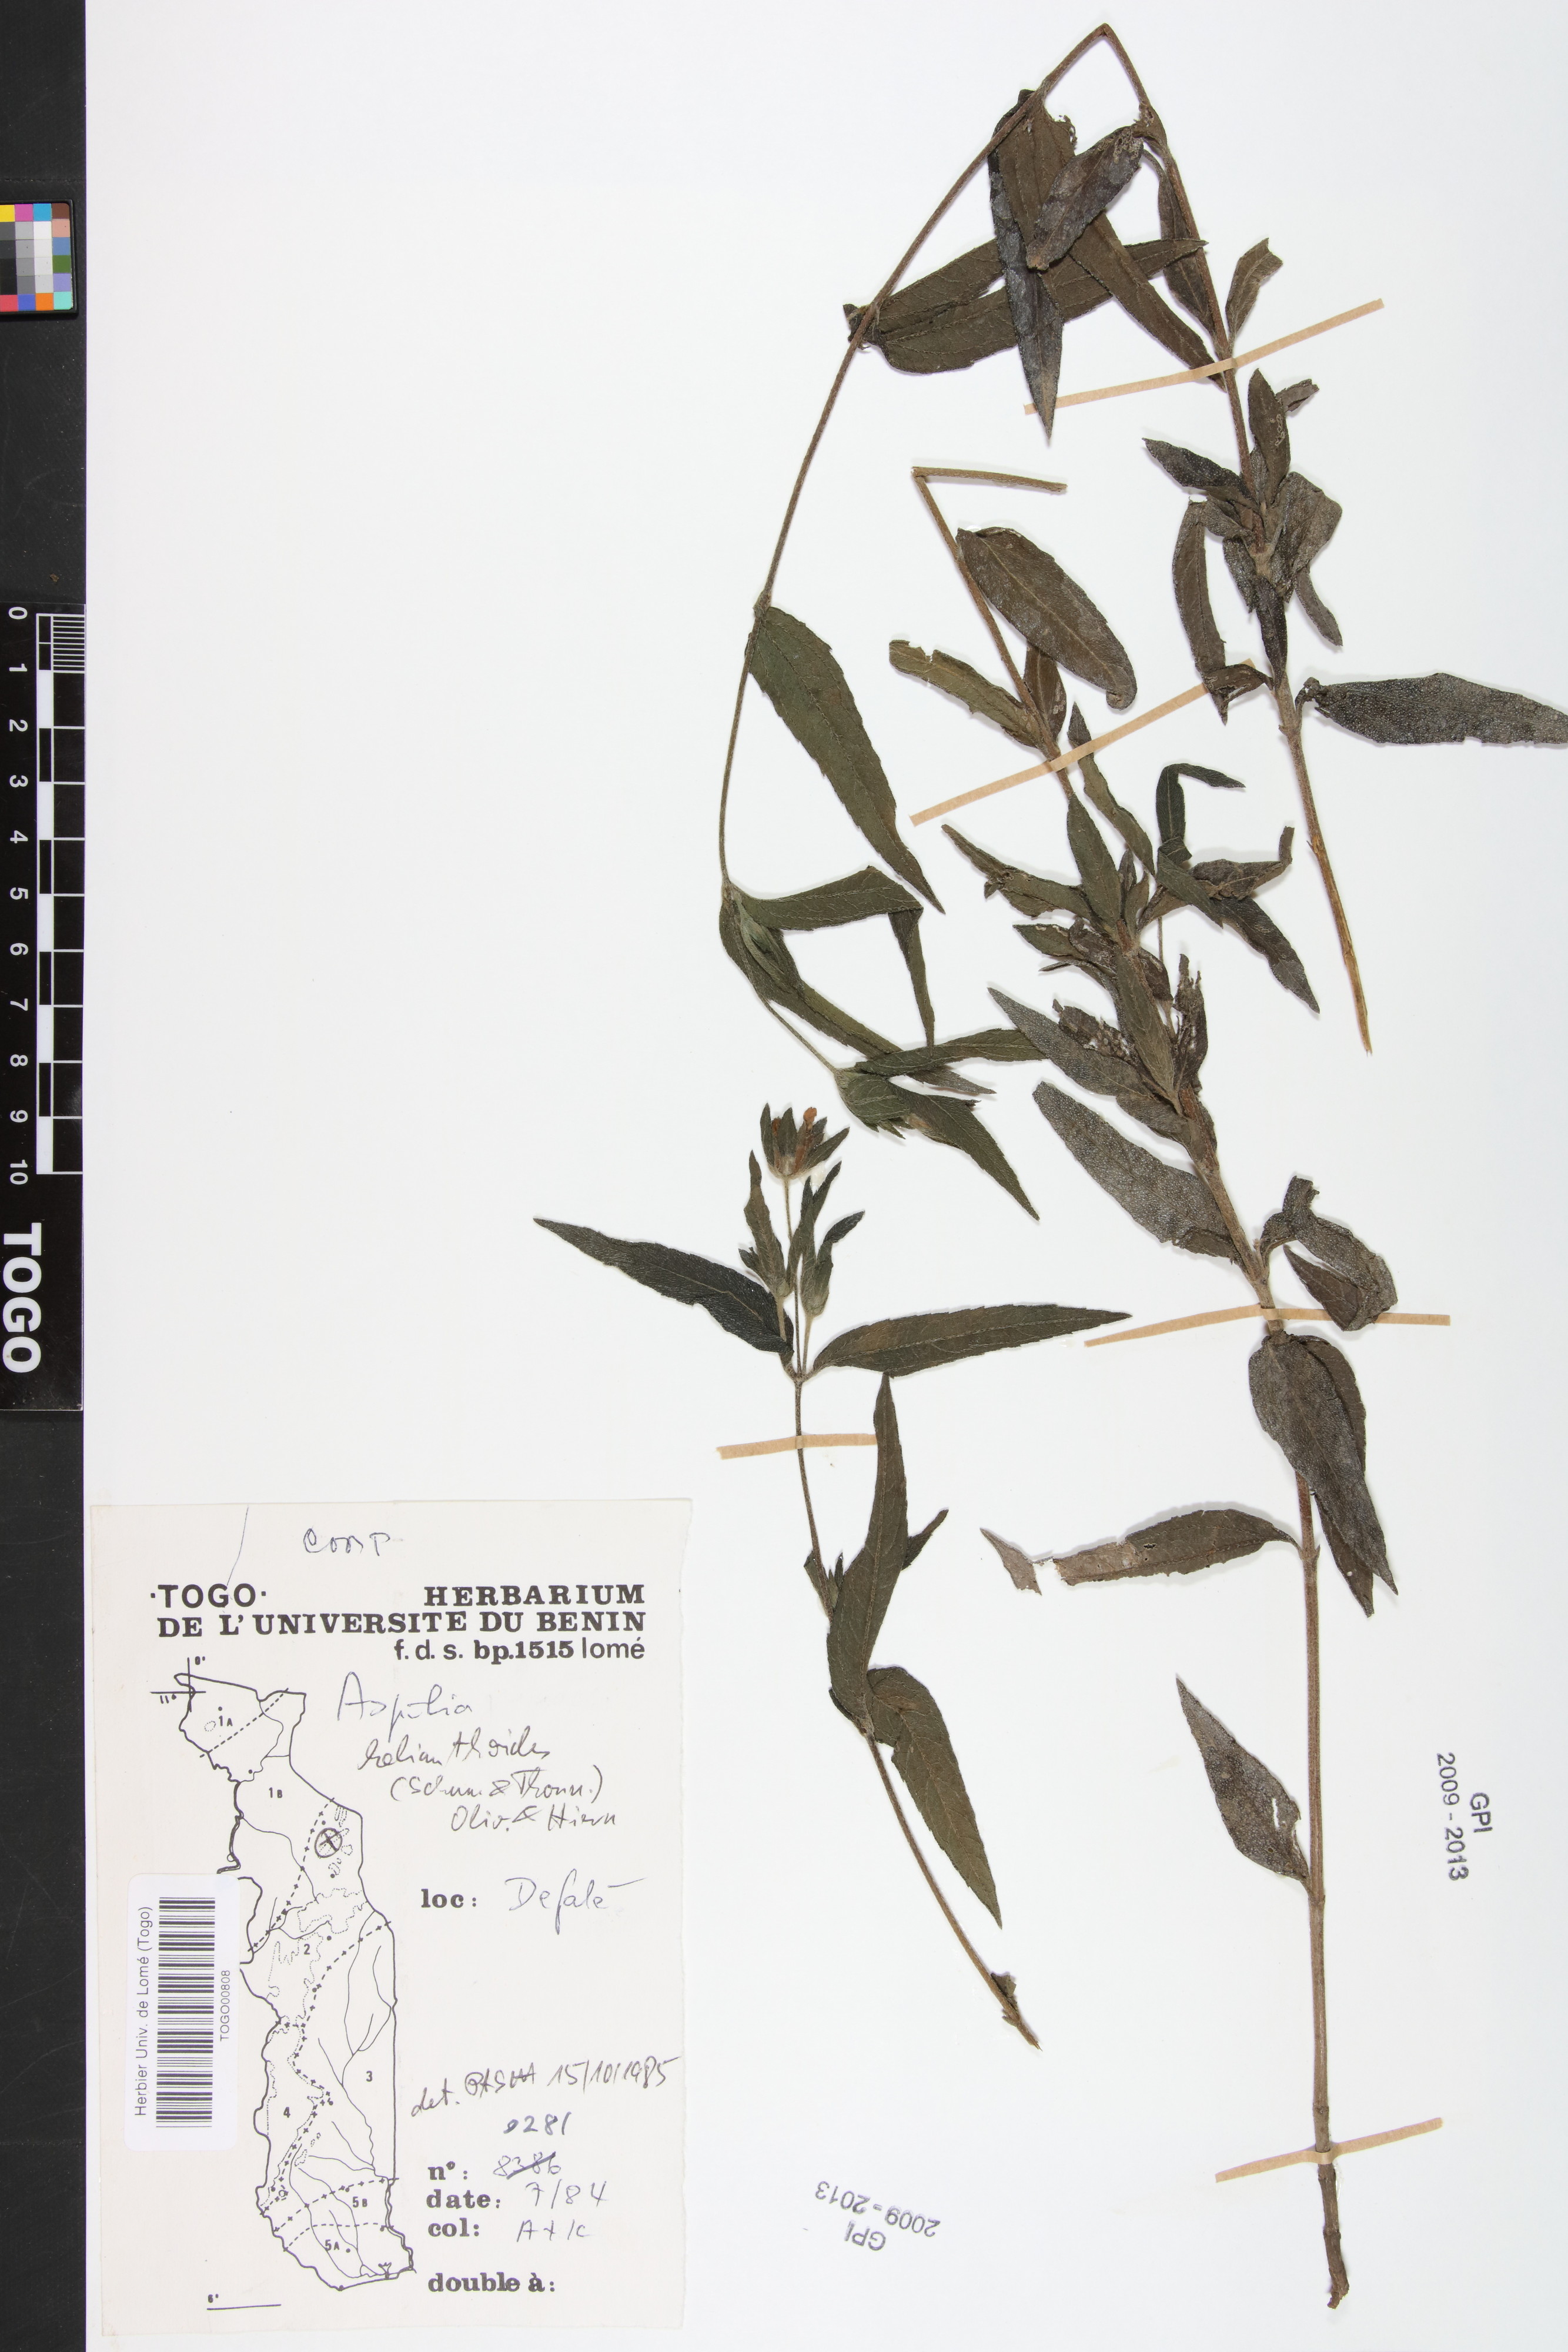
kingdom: Plantae
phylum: Tracheophyta
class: Magnoliopsida
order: Asterales
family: Asteraceae
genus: Aspilia
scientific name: Aspilia helianthoides
